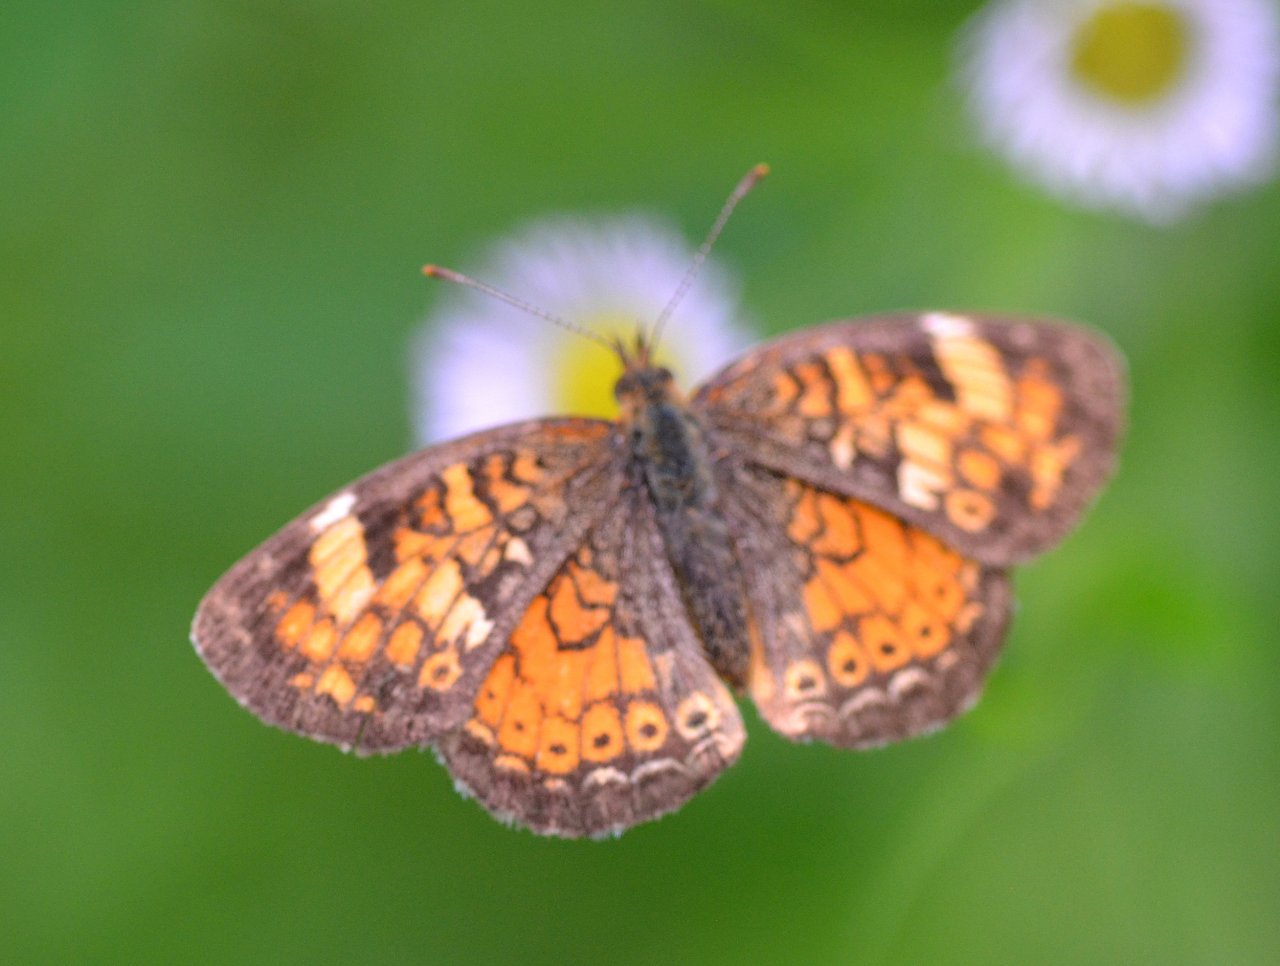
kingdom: Animalia
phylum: Arthropoda
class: Insecta
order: Lepidoptera
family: Nymphalidae
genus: Phyciodes
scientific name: Phyciodes tharos
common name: Northern Crescent
